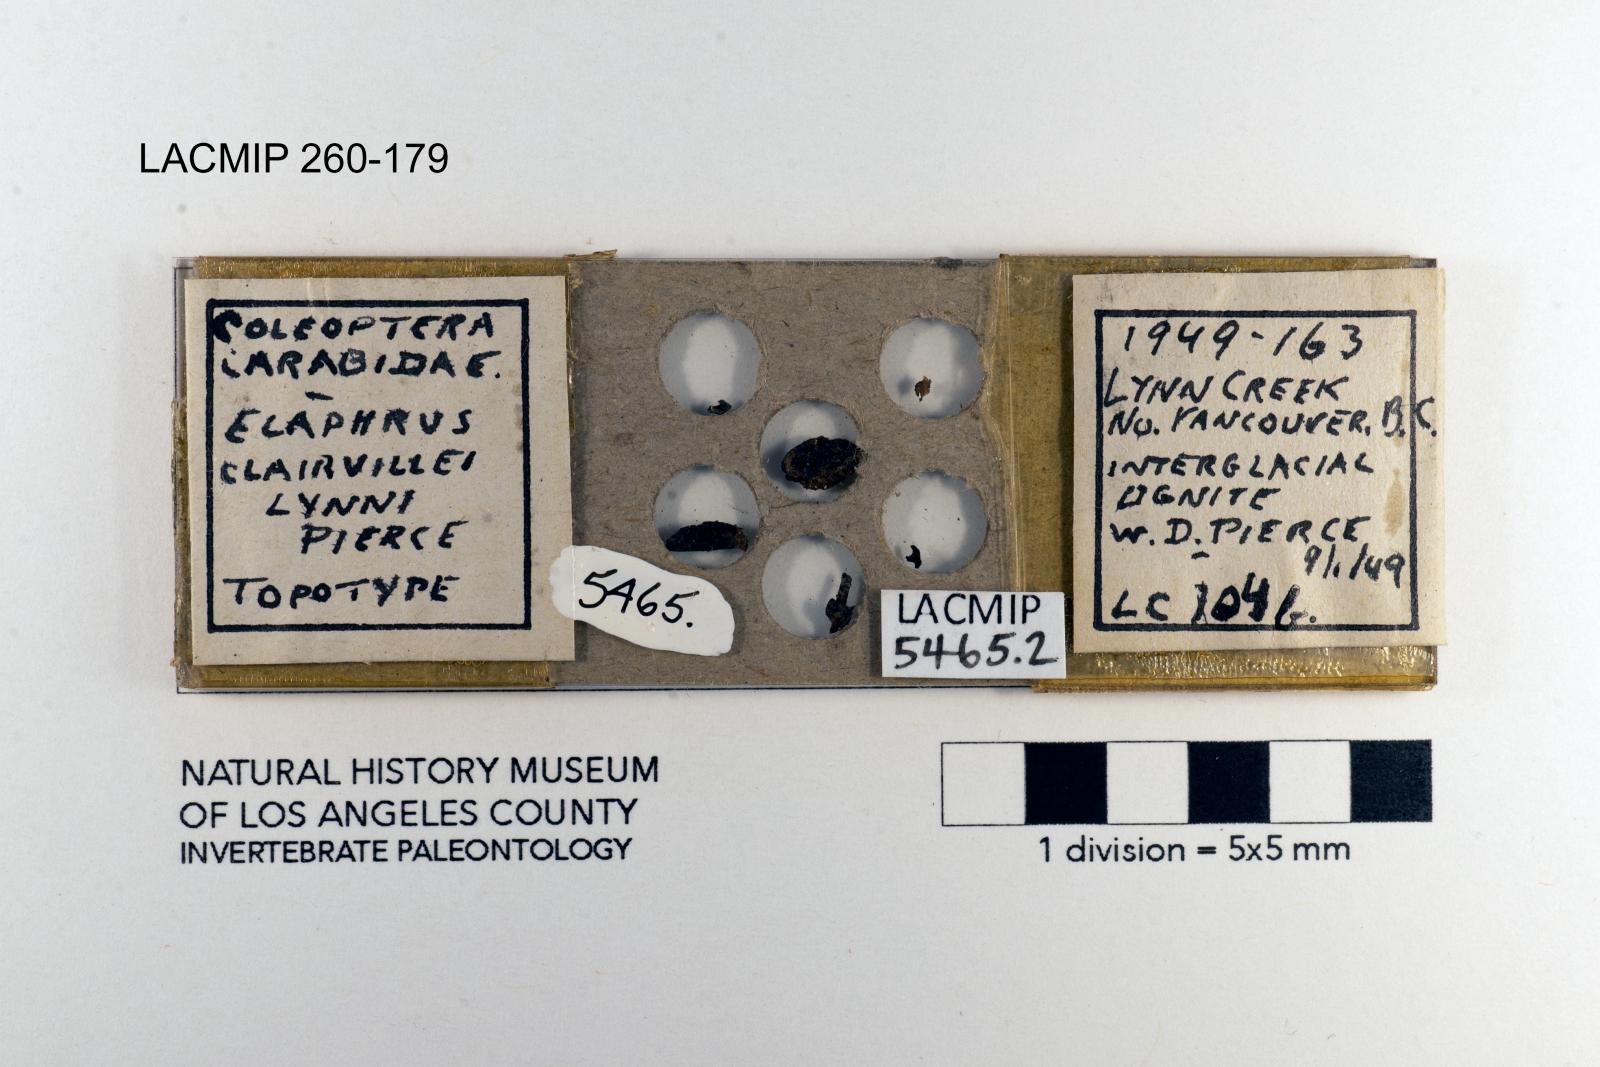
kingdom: Animalia
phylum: Arthropoda
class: Insecta
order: Coleoptera
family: Carabidae
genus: Elaphrus
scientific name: Elaphrus clairvillei
